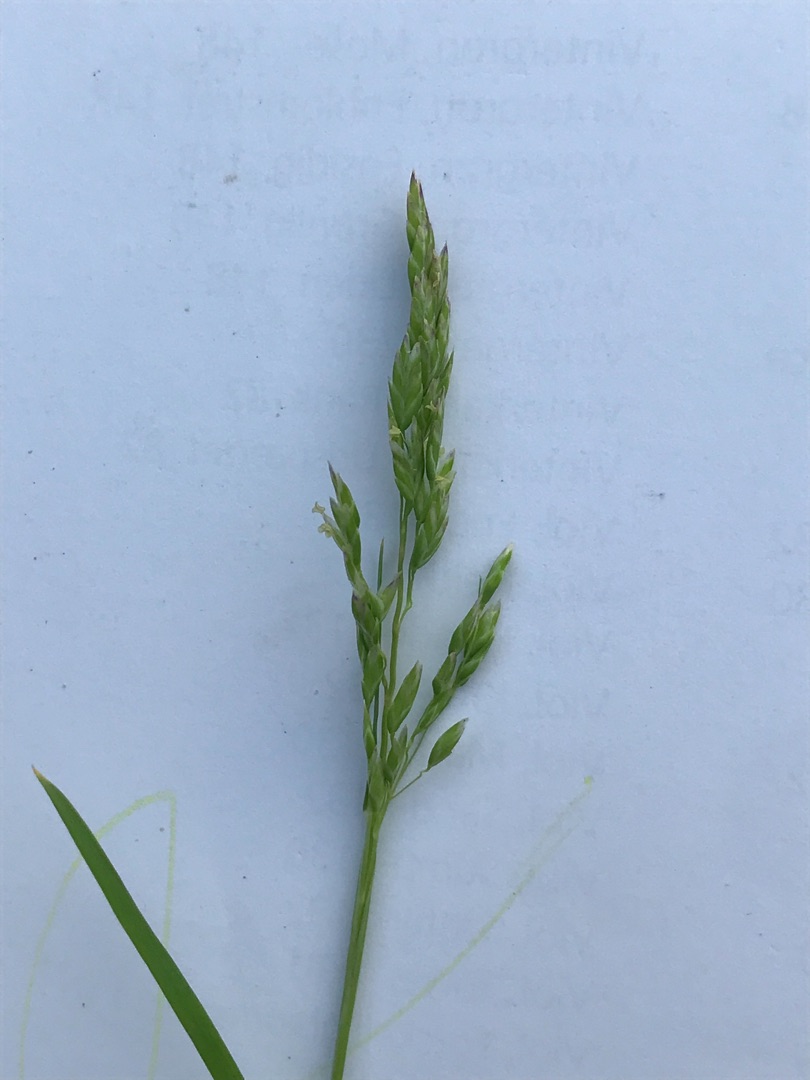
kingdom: Plantae
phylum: Tracheophyta
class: Liliopsida
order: Poales
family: Poaceae
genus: Poa
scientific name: Poa annua
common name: Enårig rapgræs
